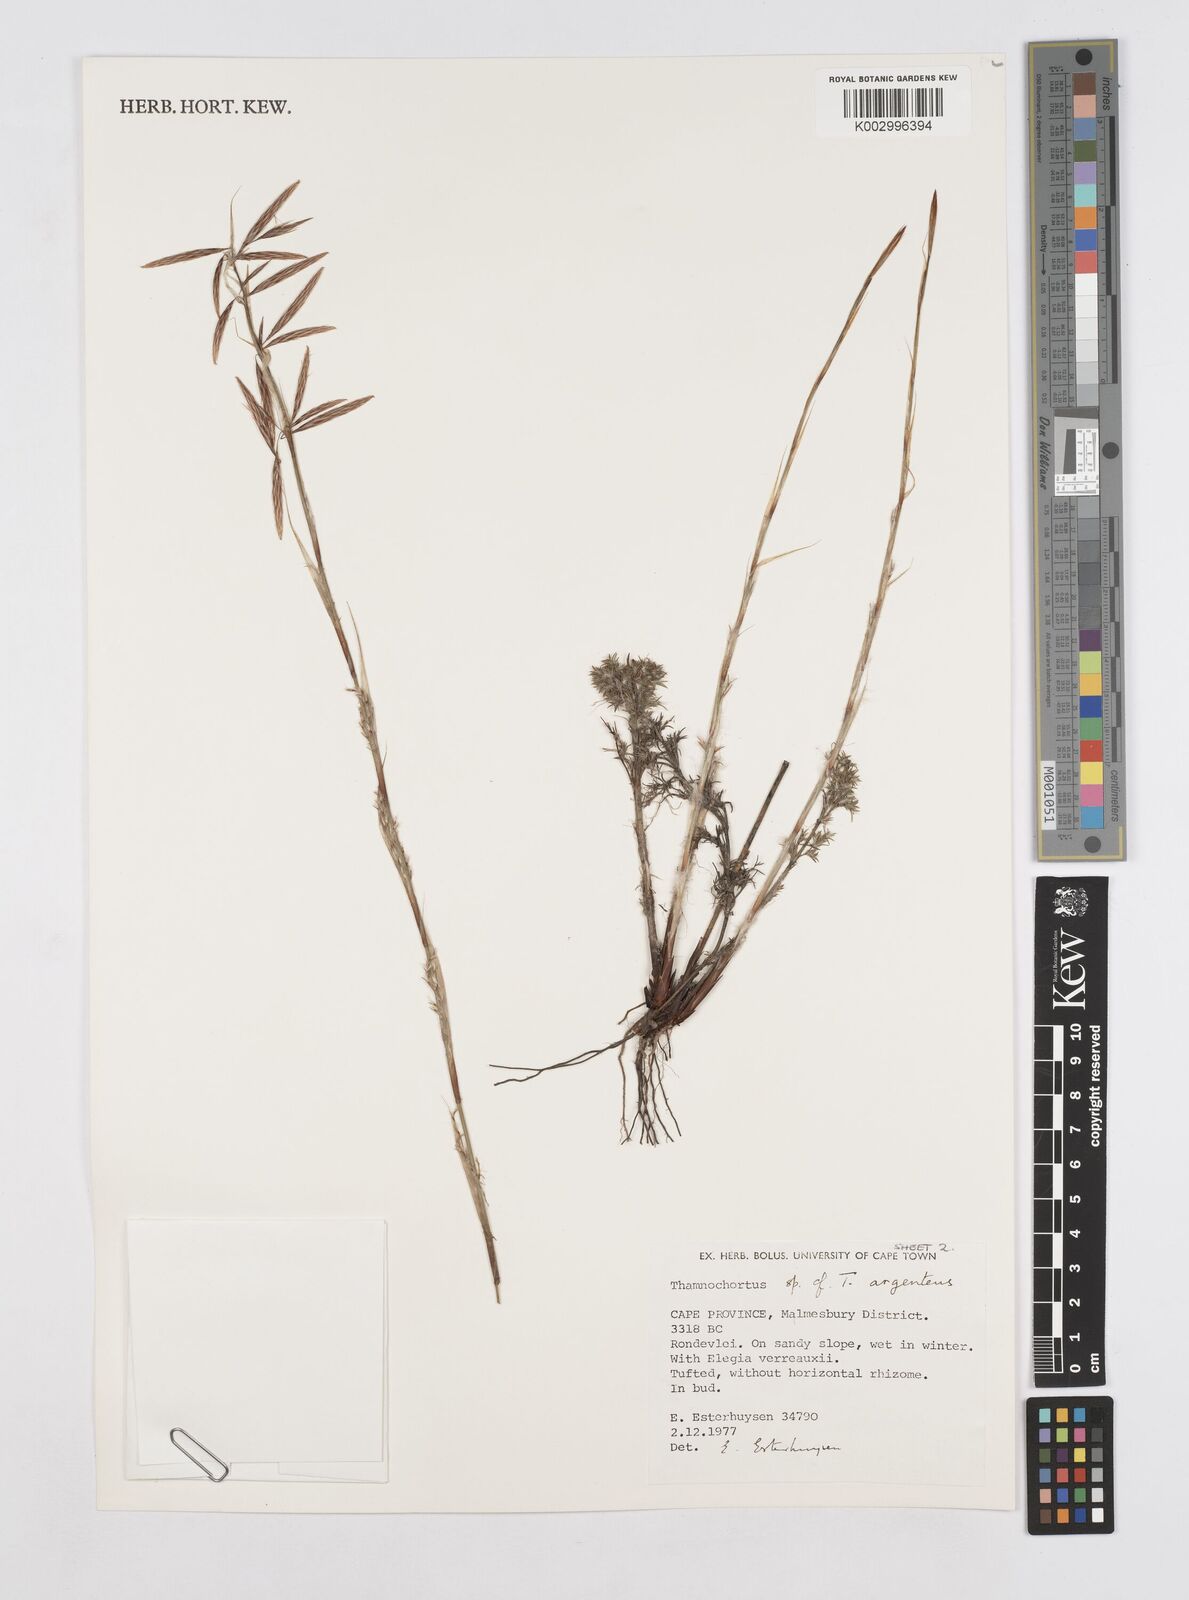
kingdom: Plantae
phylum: Tracheophyta
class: Liliopsida
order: Poales
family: Restionaceae
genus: Hypodiscus
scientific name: Hypodiscus argenteus
